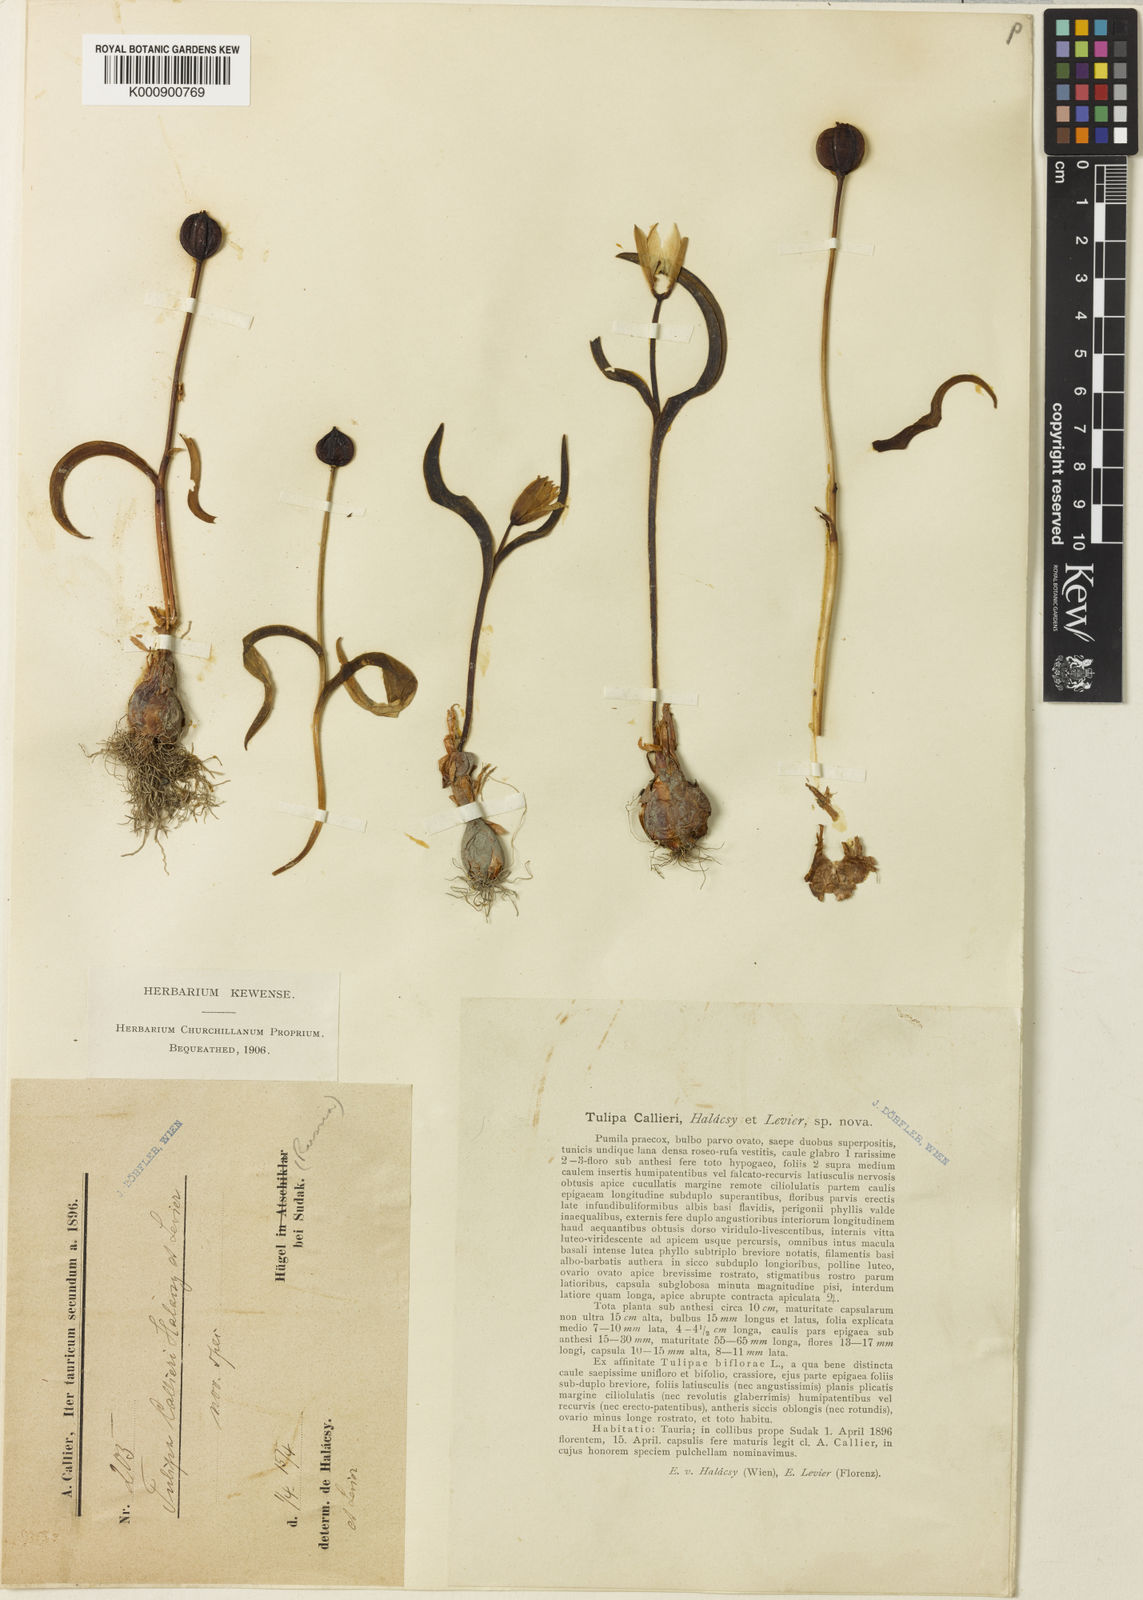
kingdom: Plantae
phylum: Tracheophyta
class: Liliopsida
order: Liliales
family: Liliaceae
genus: Tulipa
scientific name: Tulipa
